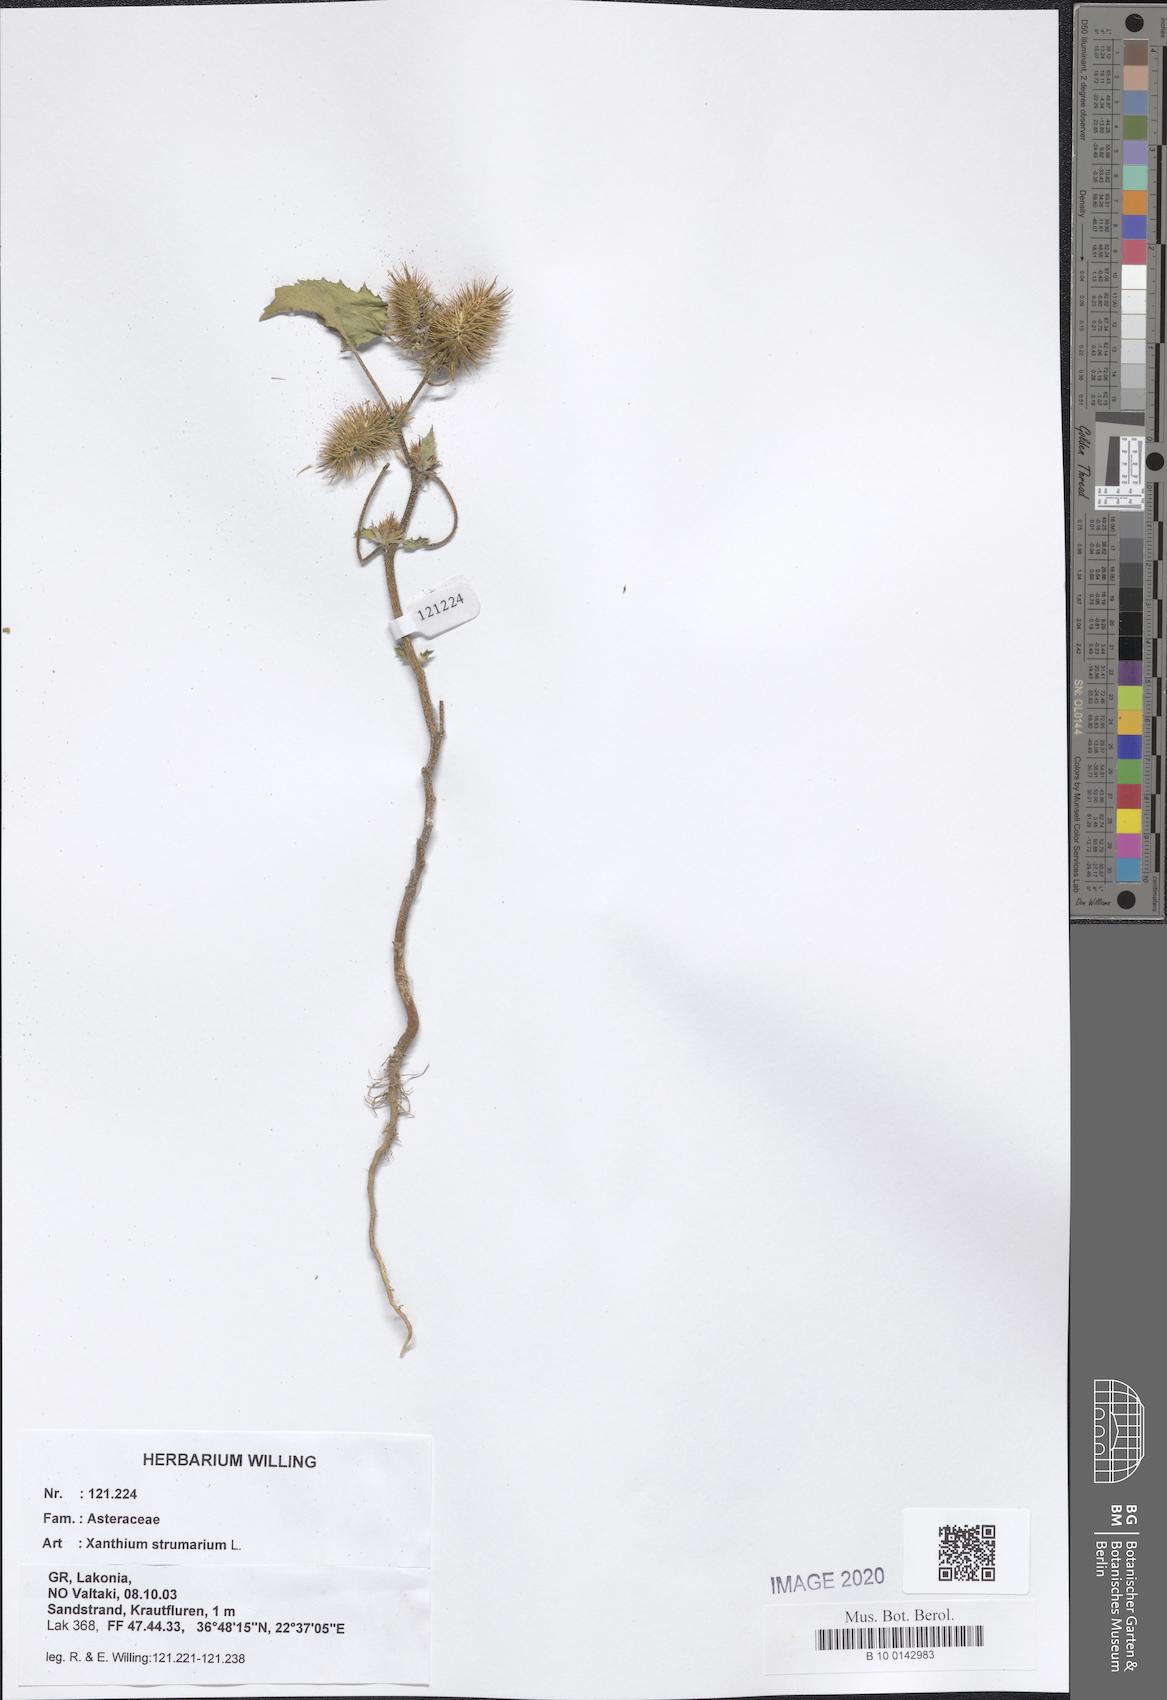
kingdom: Plantae
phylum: Tracheophyta
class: Magnoliopsida
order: Asterales
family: Asteraceae
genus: Xanthium
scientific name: Xanthium strumarium
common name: Rough cocklebur
